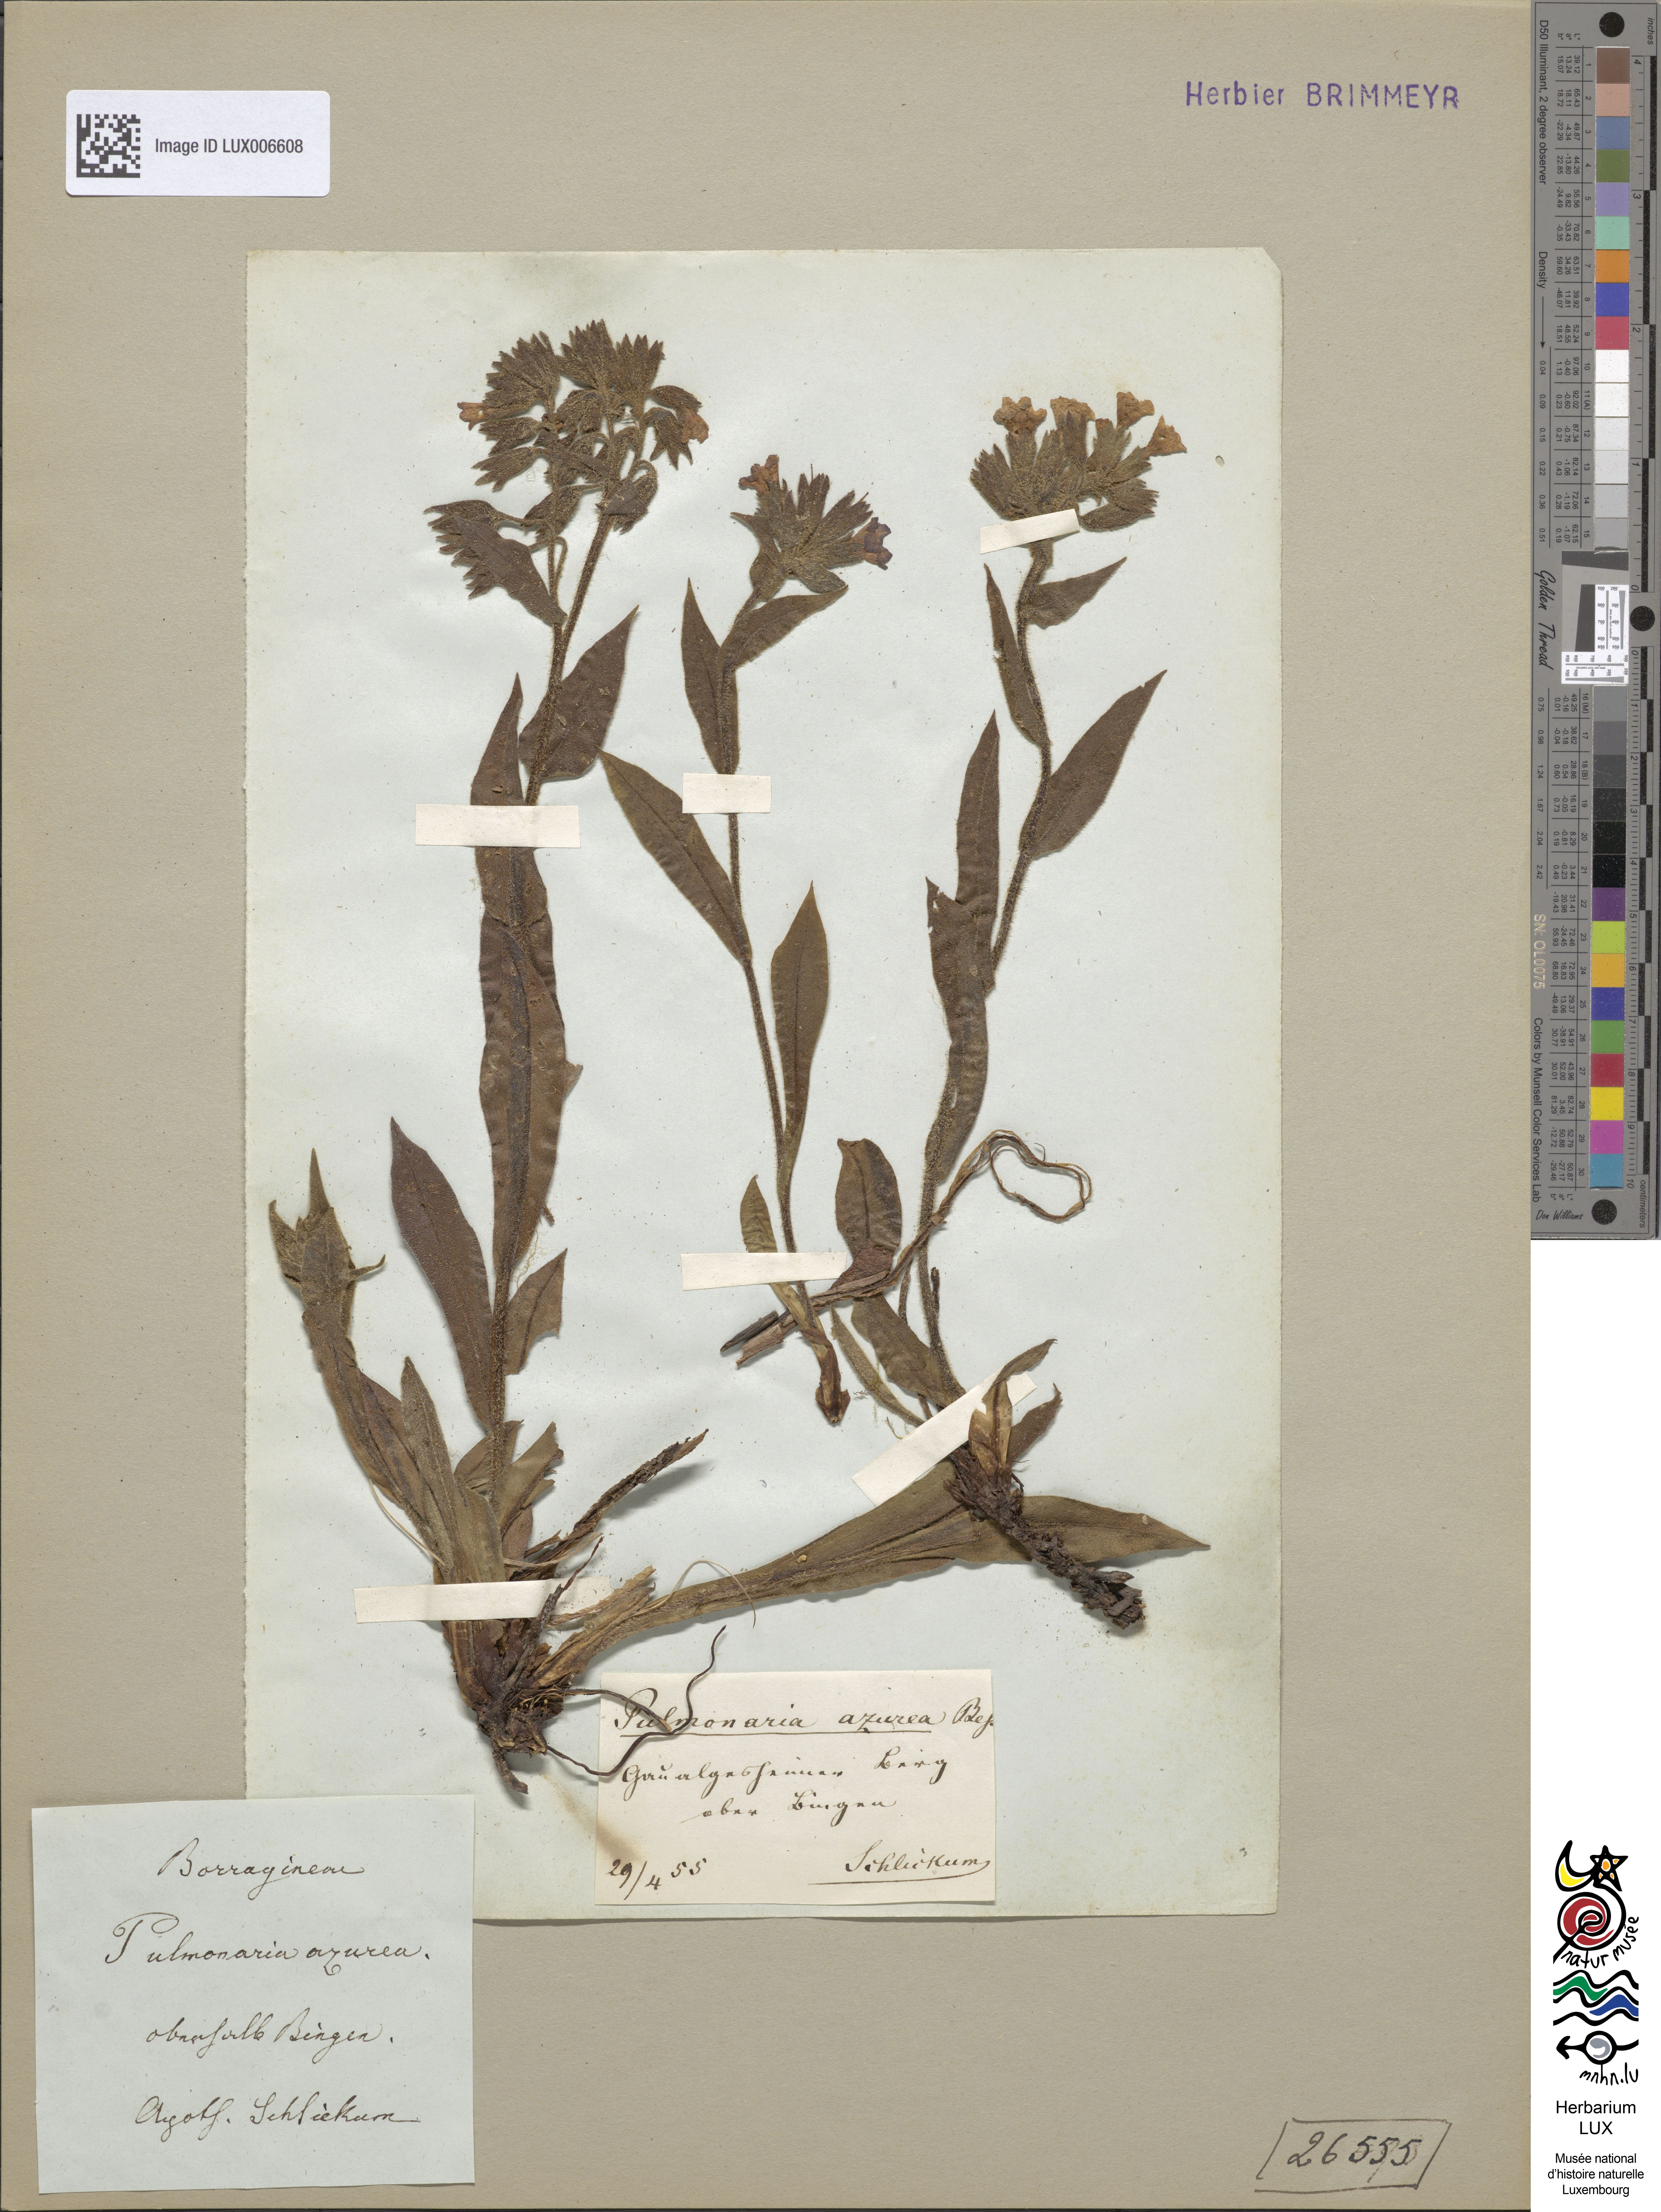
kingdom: Plantae
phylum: Tracheophyta
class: Magnoliopsida
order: Boraginales
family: Boraginaceae
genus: Pulmonaria
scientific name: Pulmonaria angustifolia
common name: Blue cowslip
